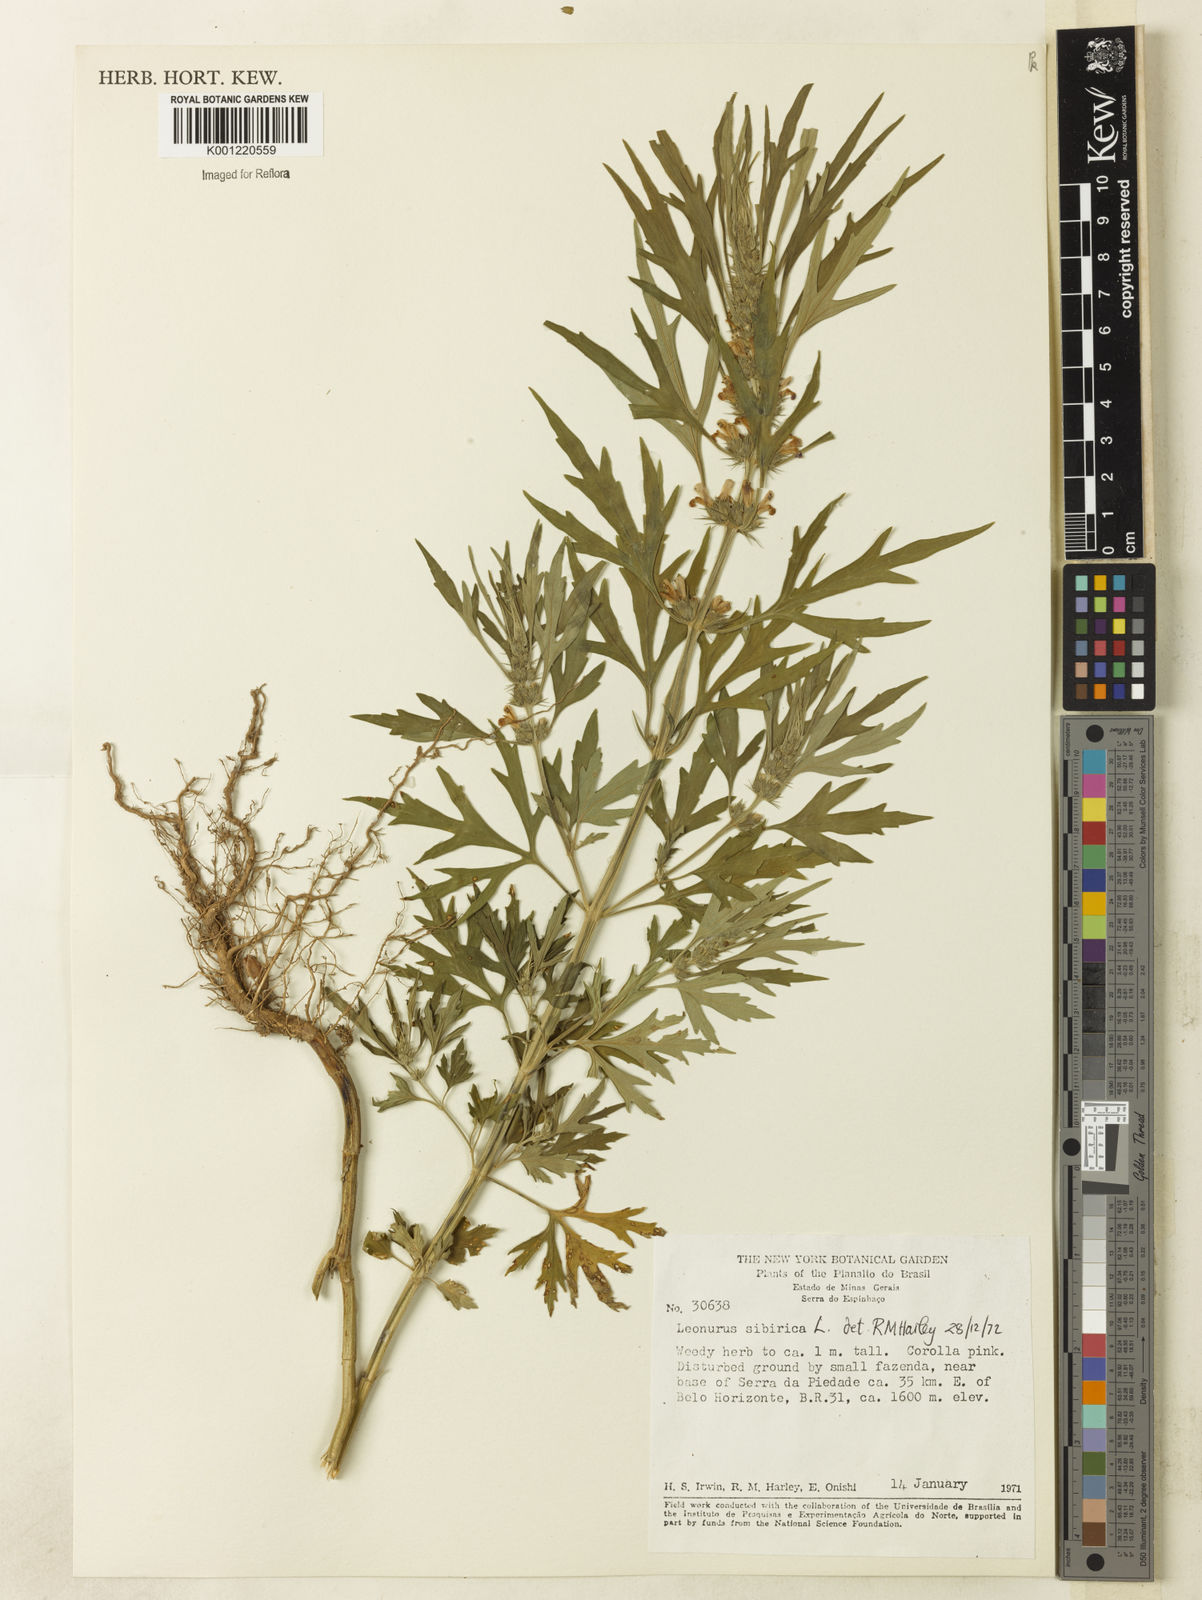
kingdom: Plantae
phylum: Tracheophyta
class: Magnoliopsida
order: Lamiales
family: Lamiaceae
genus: Leonurus
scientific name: Leonurus japonicus
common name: Honeyweed
